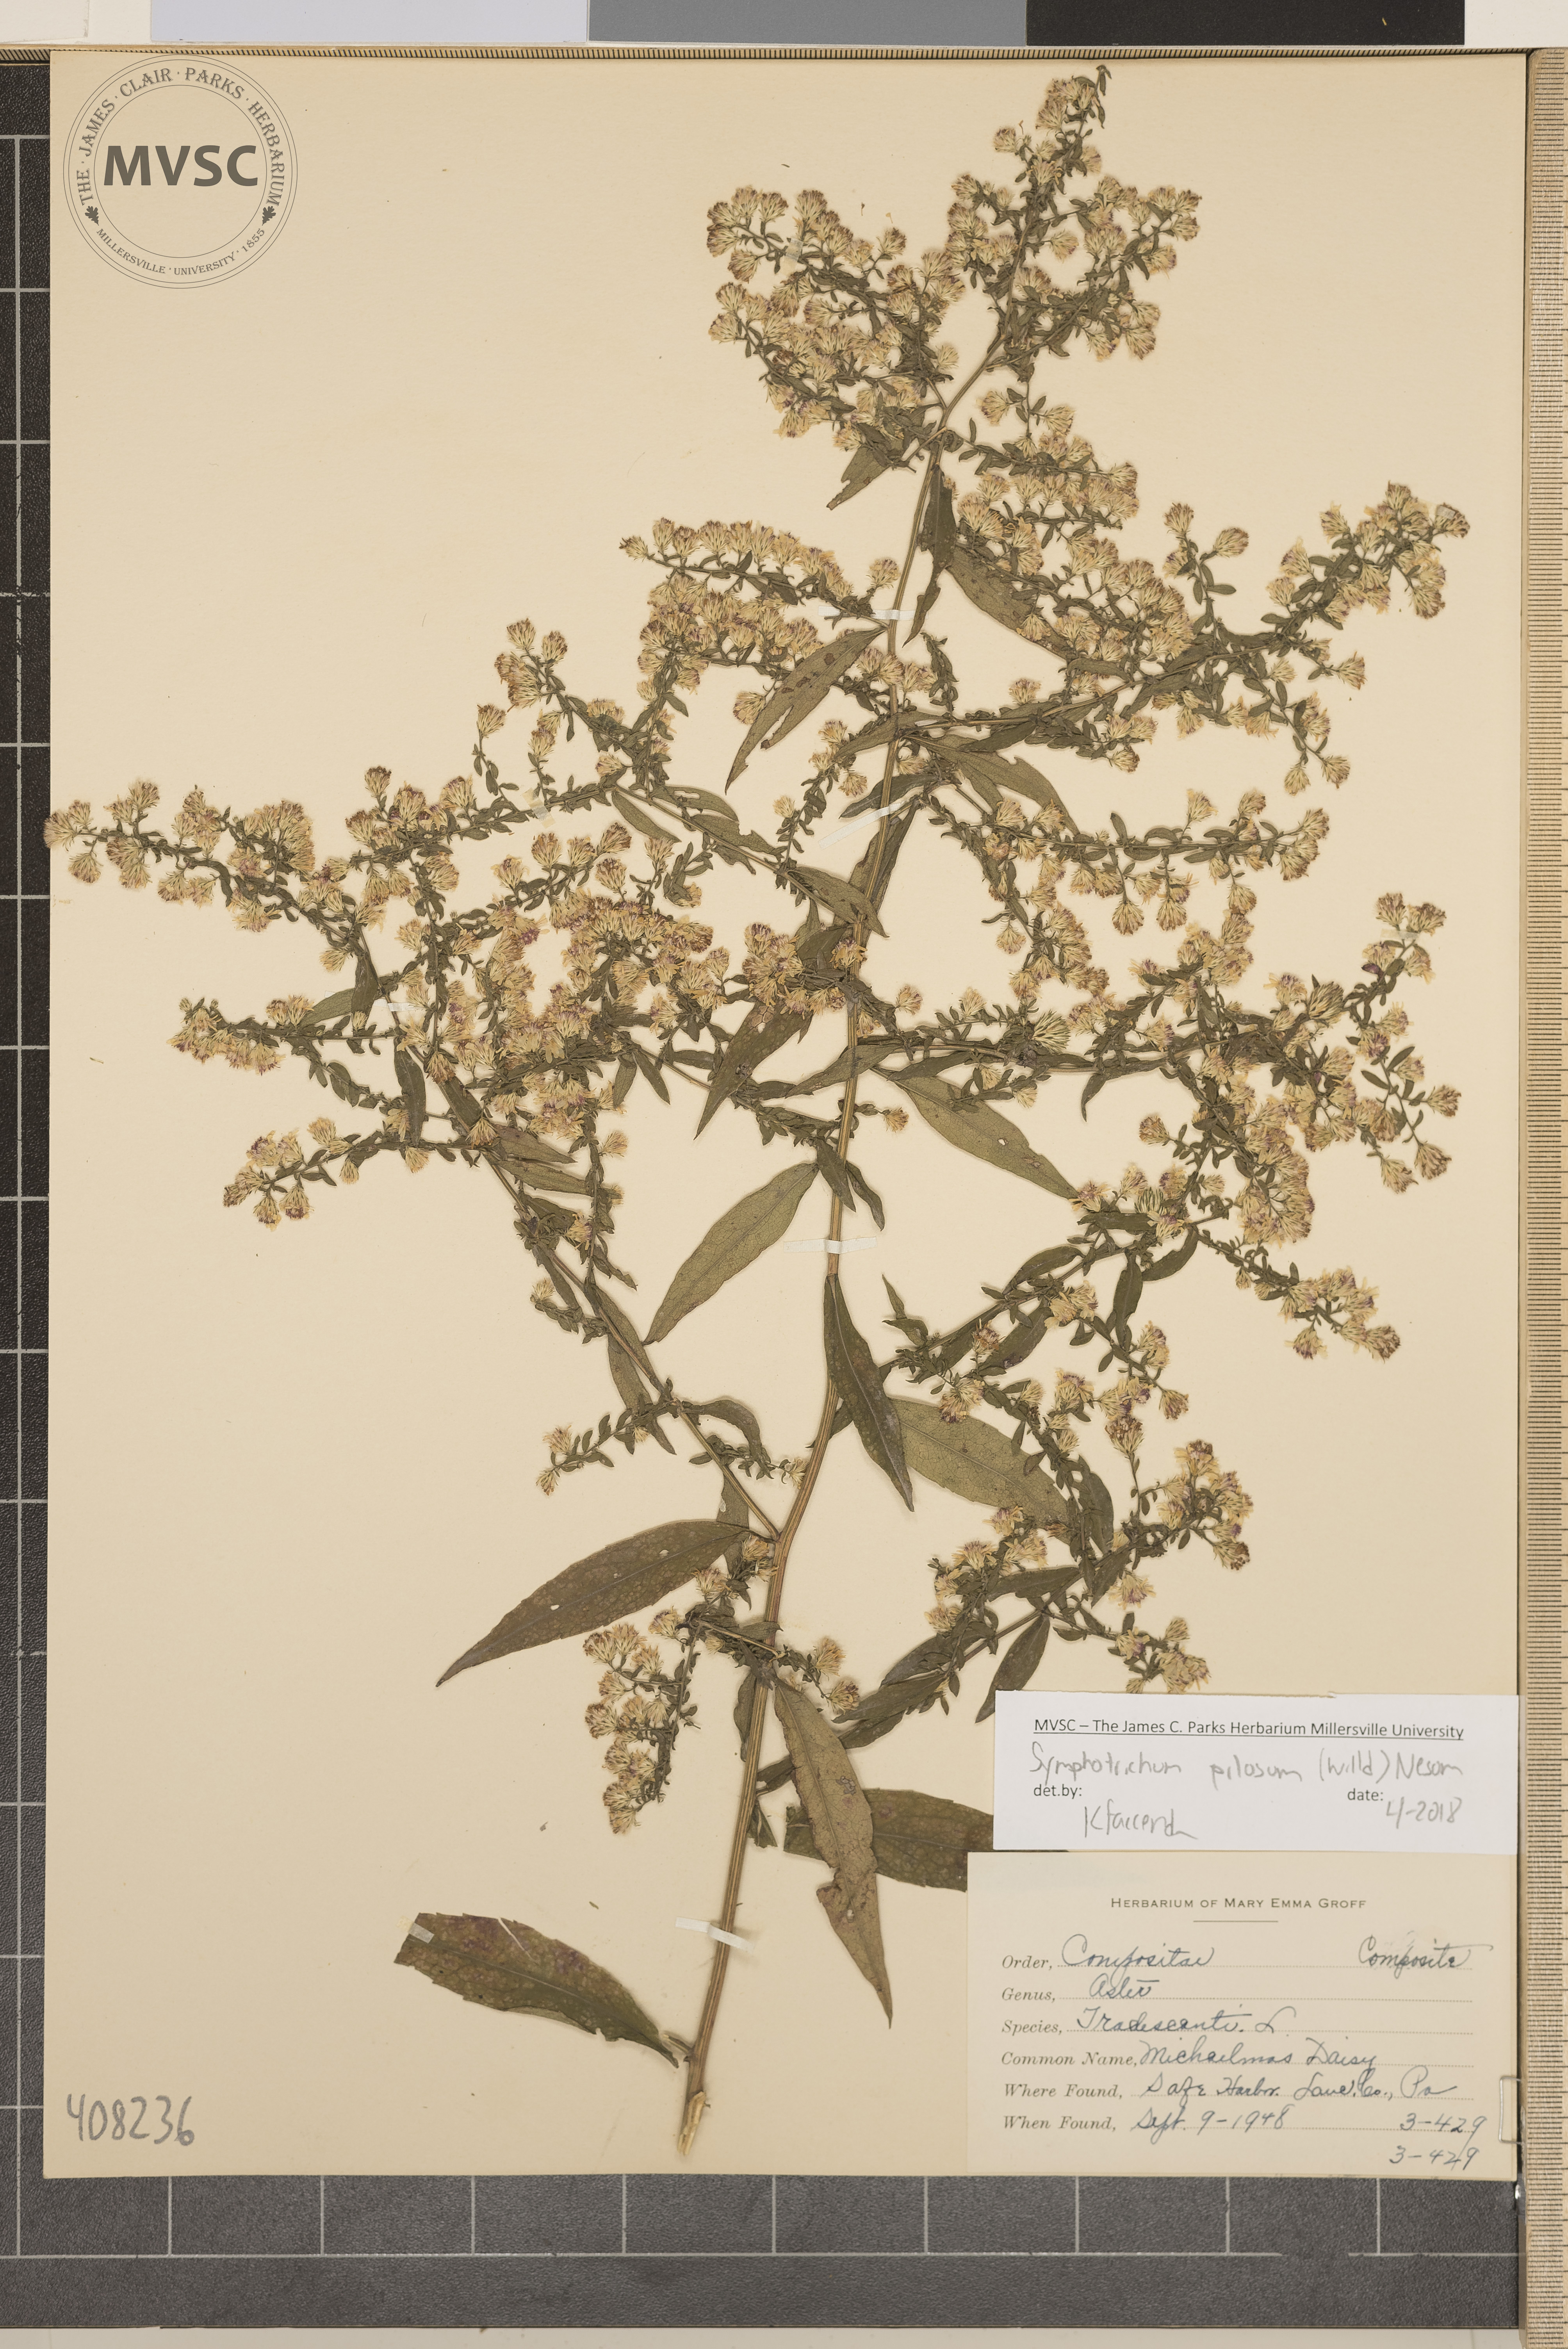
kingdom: Plantae
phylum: Tracheophyta
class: Magnoliopsida
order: Asterales
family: Asteraceae
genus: Symphyotrichum
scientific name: Symphyotrichum pilosum
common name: Michaelmas Daisy
